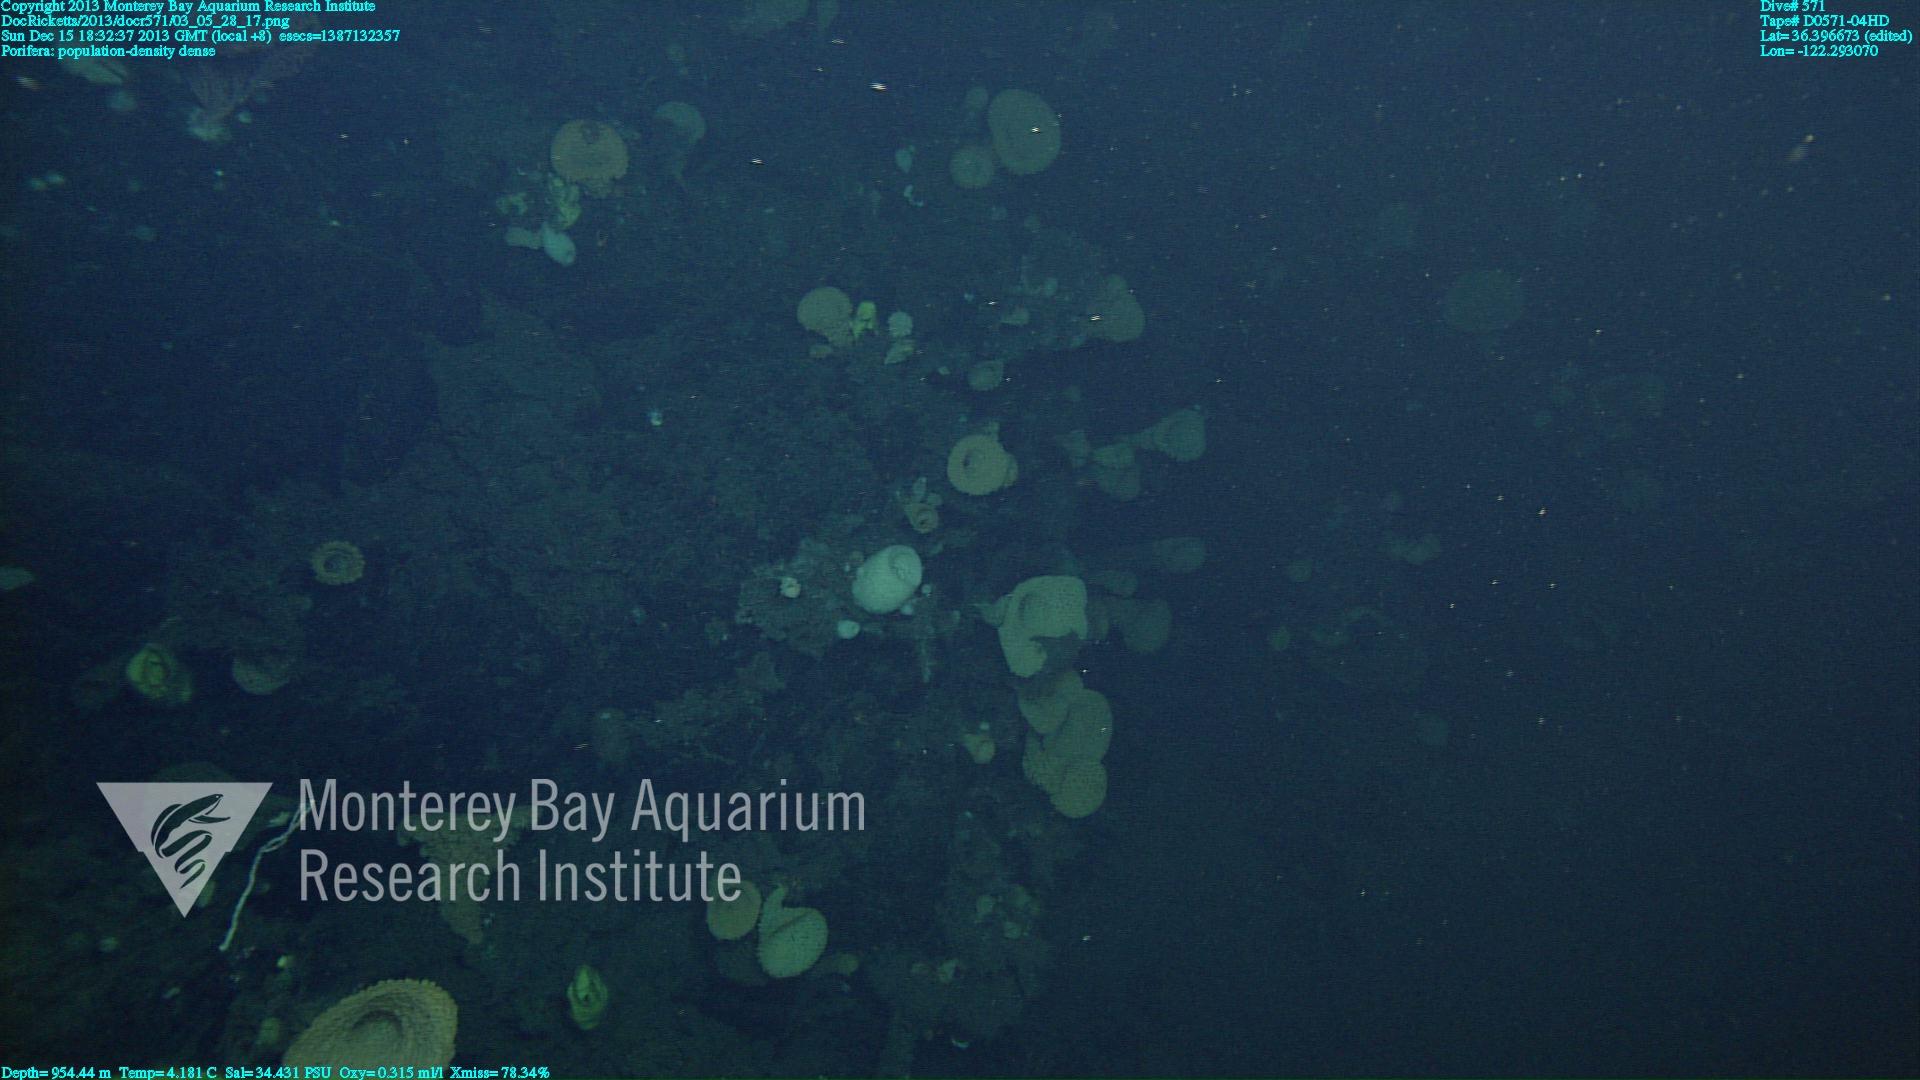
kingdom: Animalia
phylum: Porifera
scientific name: Porifera
